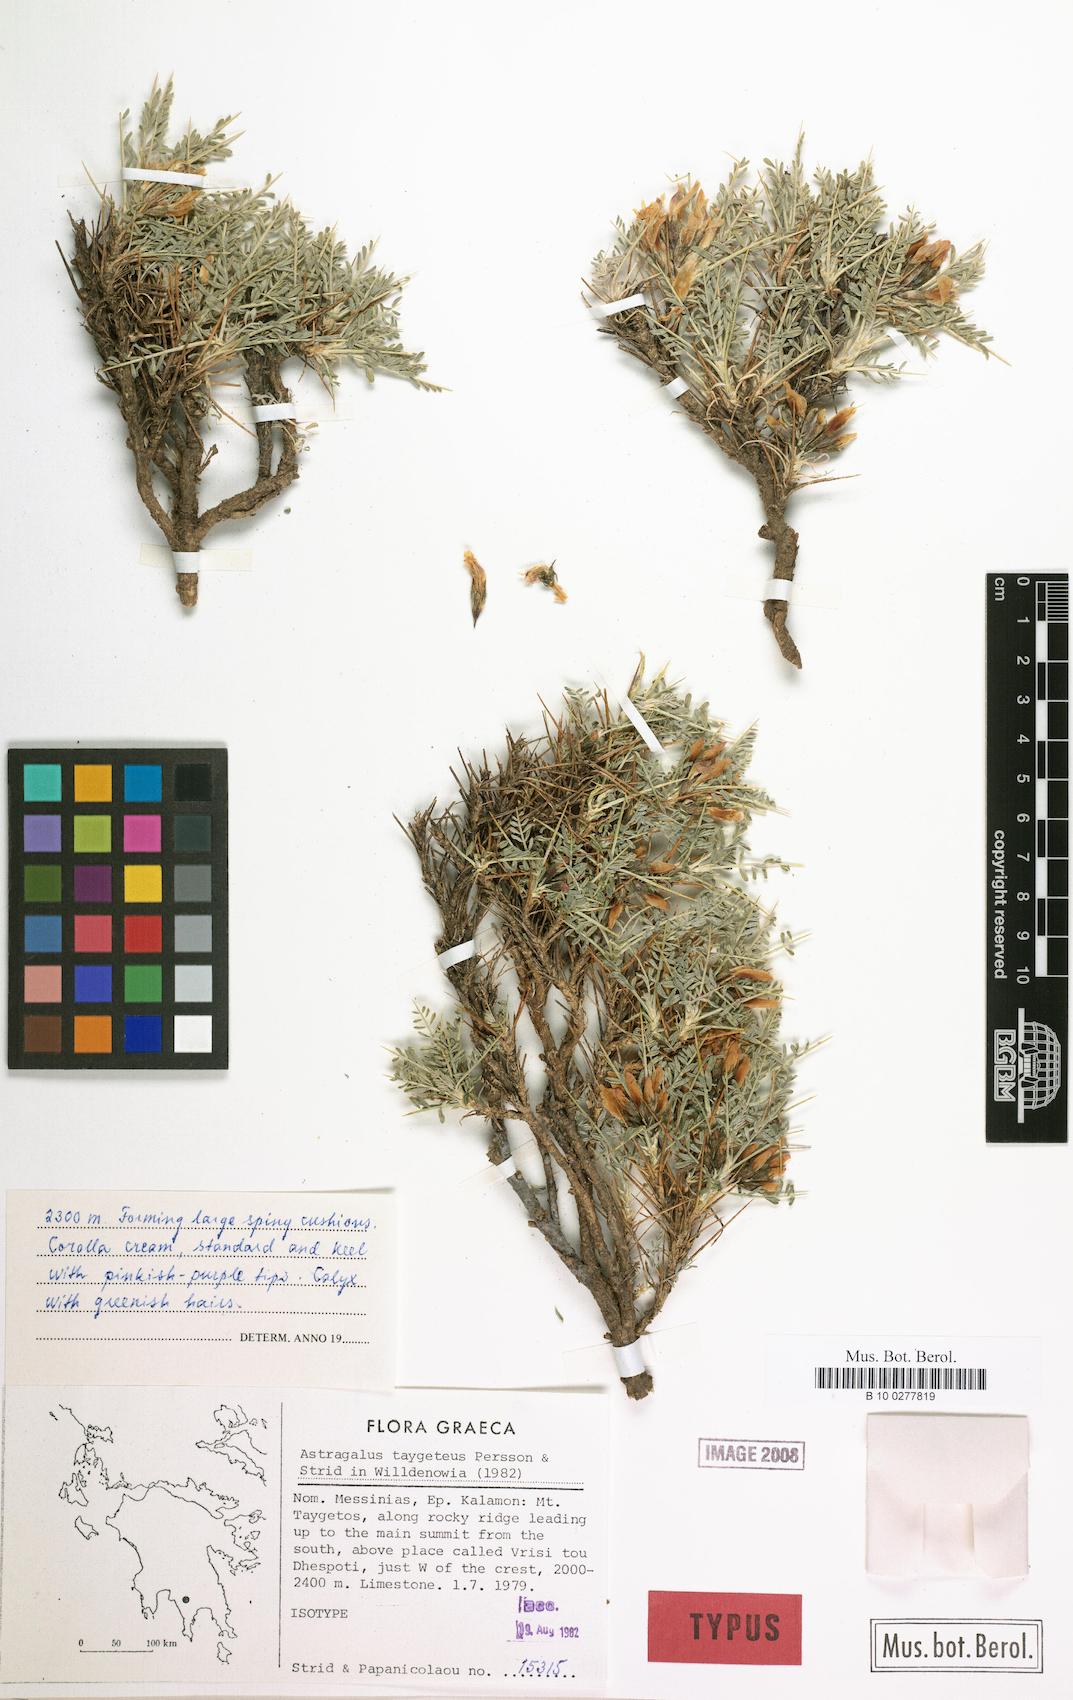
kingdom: Plantae
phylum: Tracheophyta
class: Magnoliopsida
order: Fabales
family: Fabaceae
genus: Astragalus
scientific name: Astragalus taygeteus
